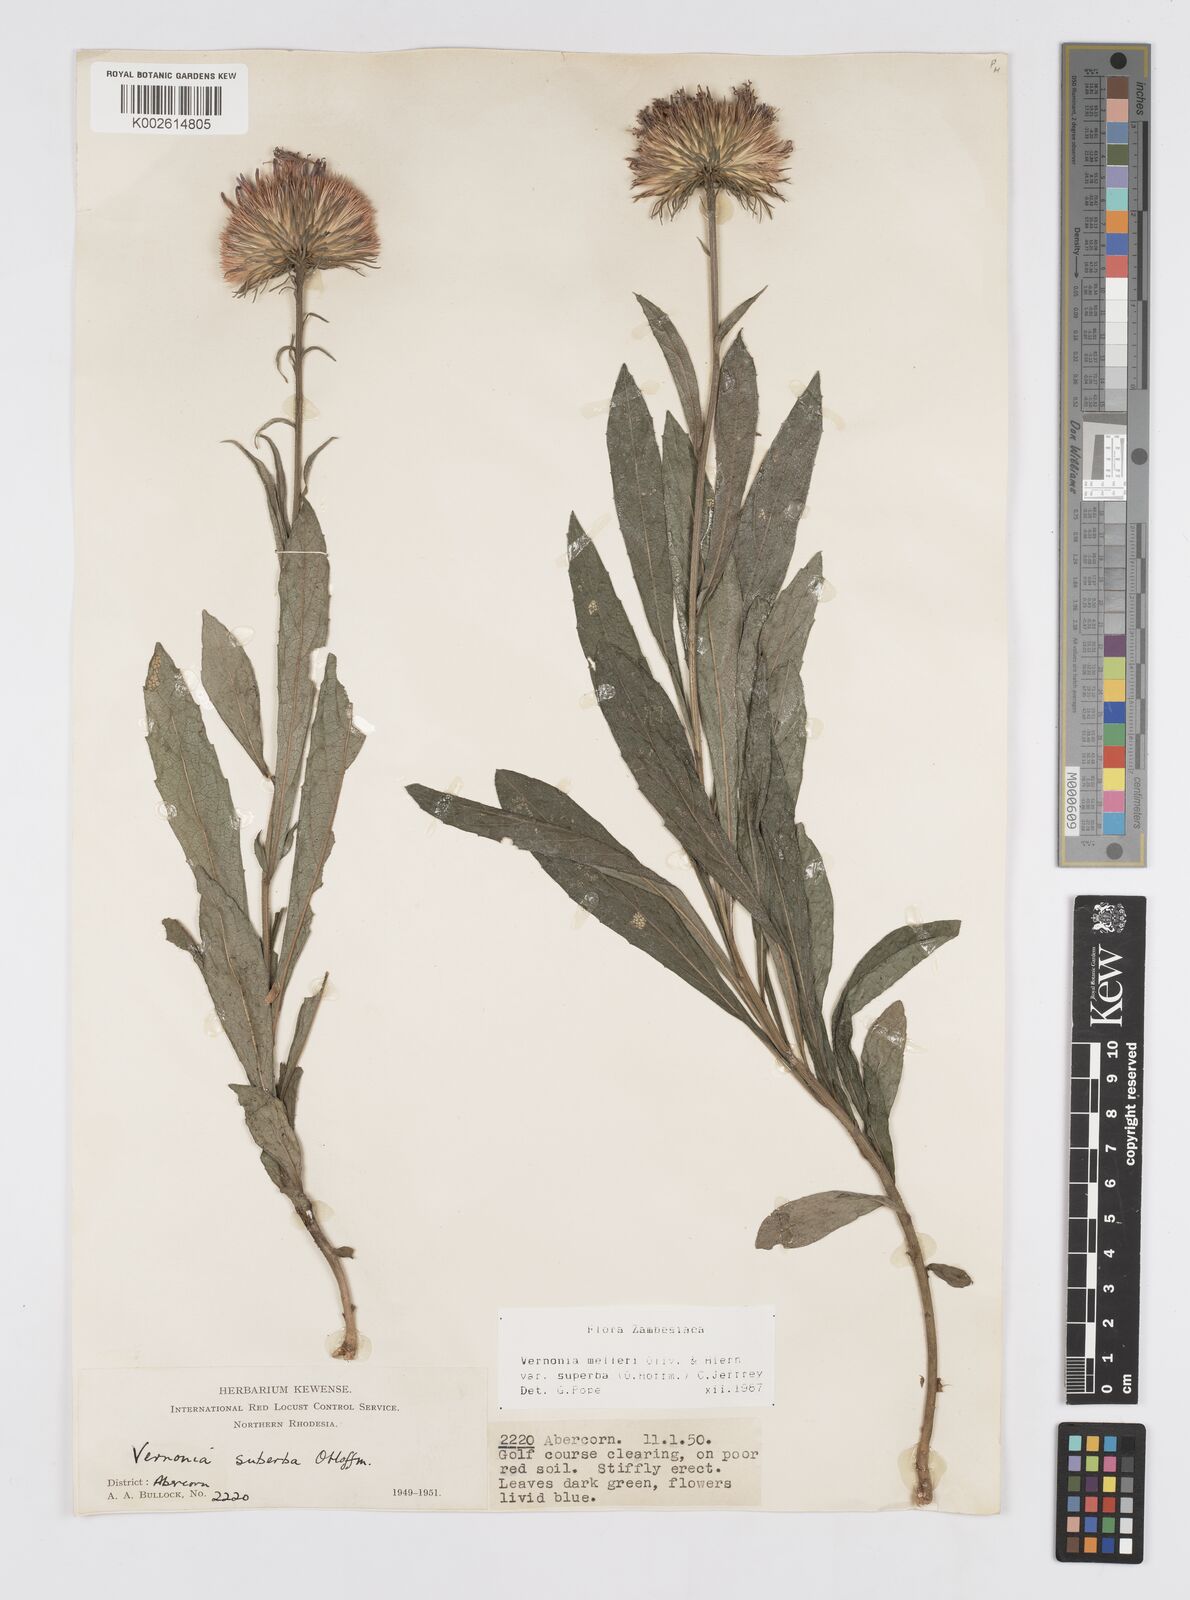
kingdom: Plantae
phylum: Tracheophyta
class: Magnoliopsida
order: Asterales
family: Asteraceae
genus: Linzia
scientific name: Linzia melleri
